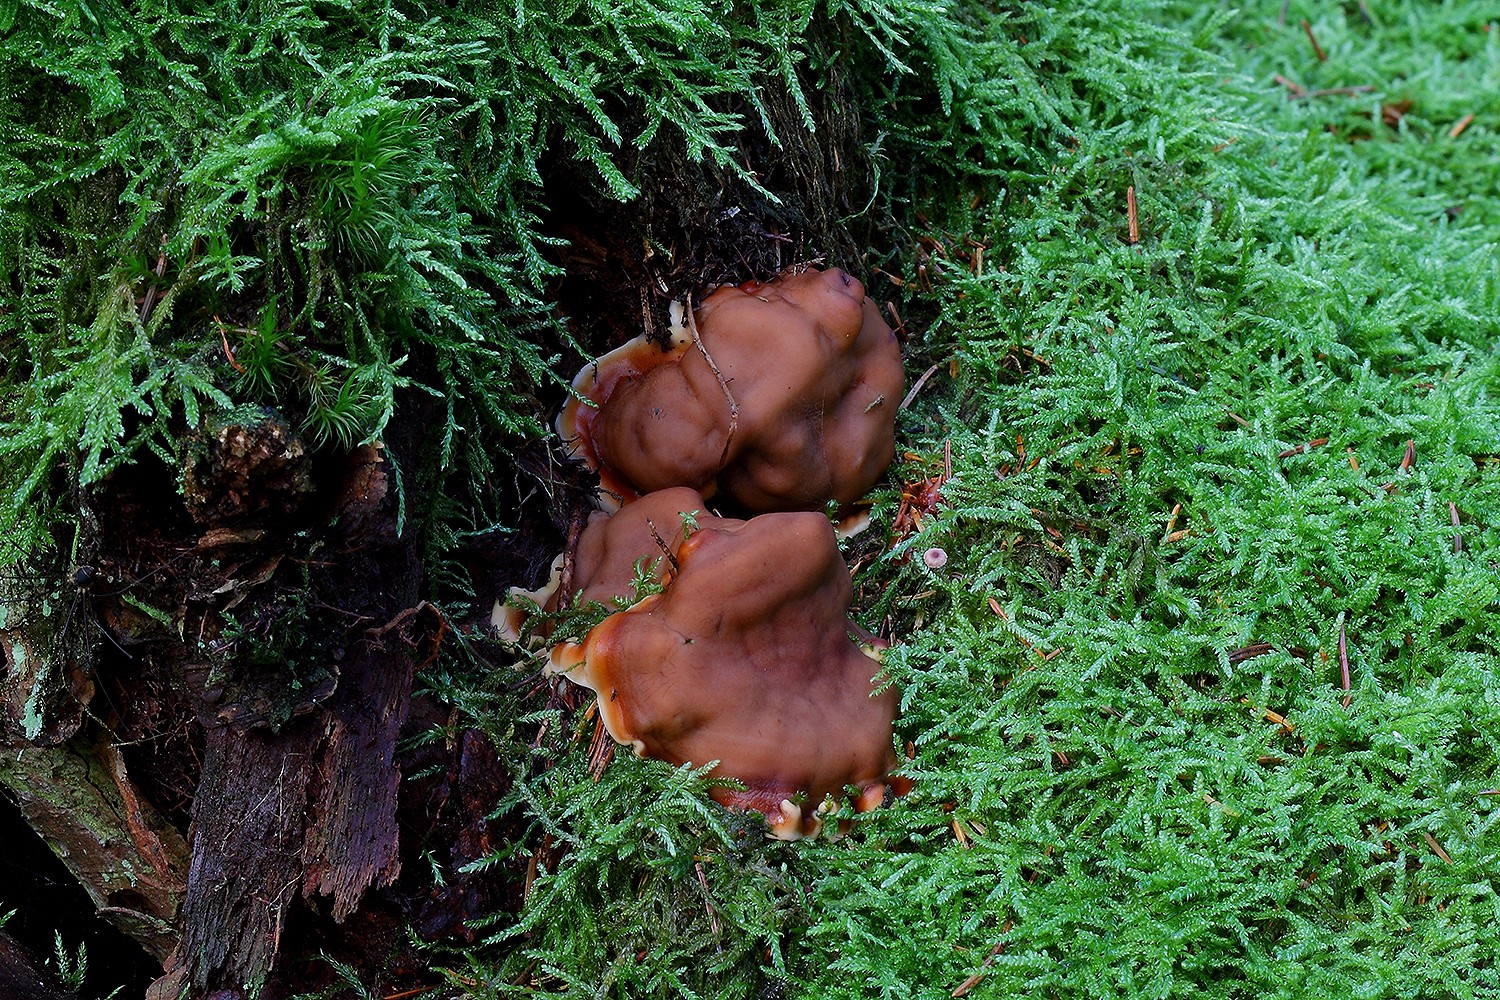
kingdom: Fungi
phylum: Ascomycota
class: Pezizomycetes
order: Pezizales
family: Rhizinaceae
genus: Rhizina
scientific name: Rhizina undulata
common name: rodmorkel
